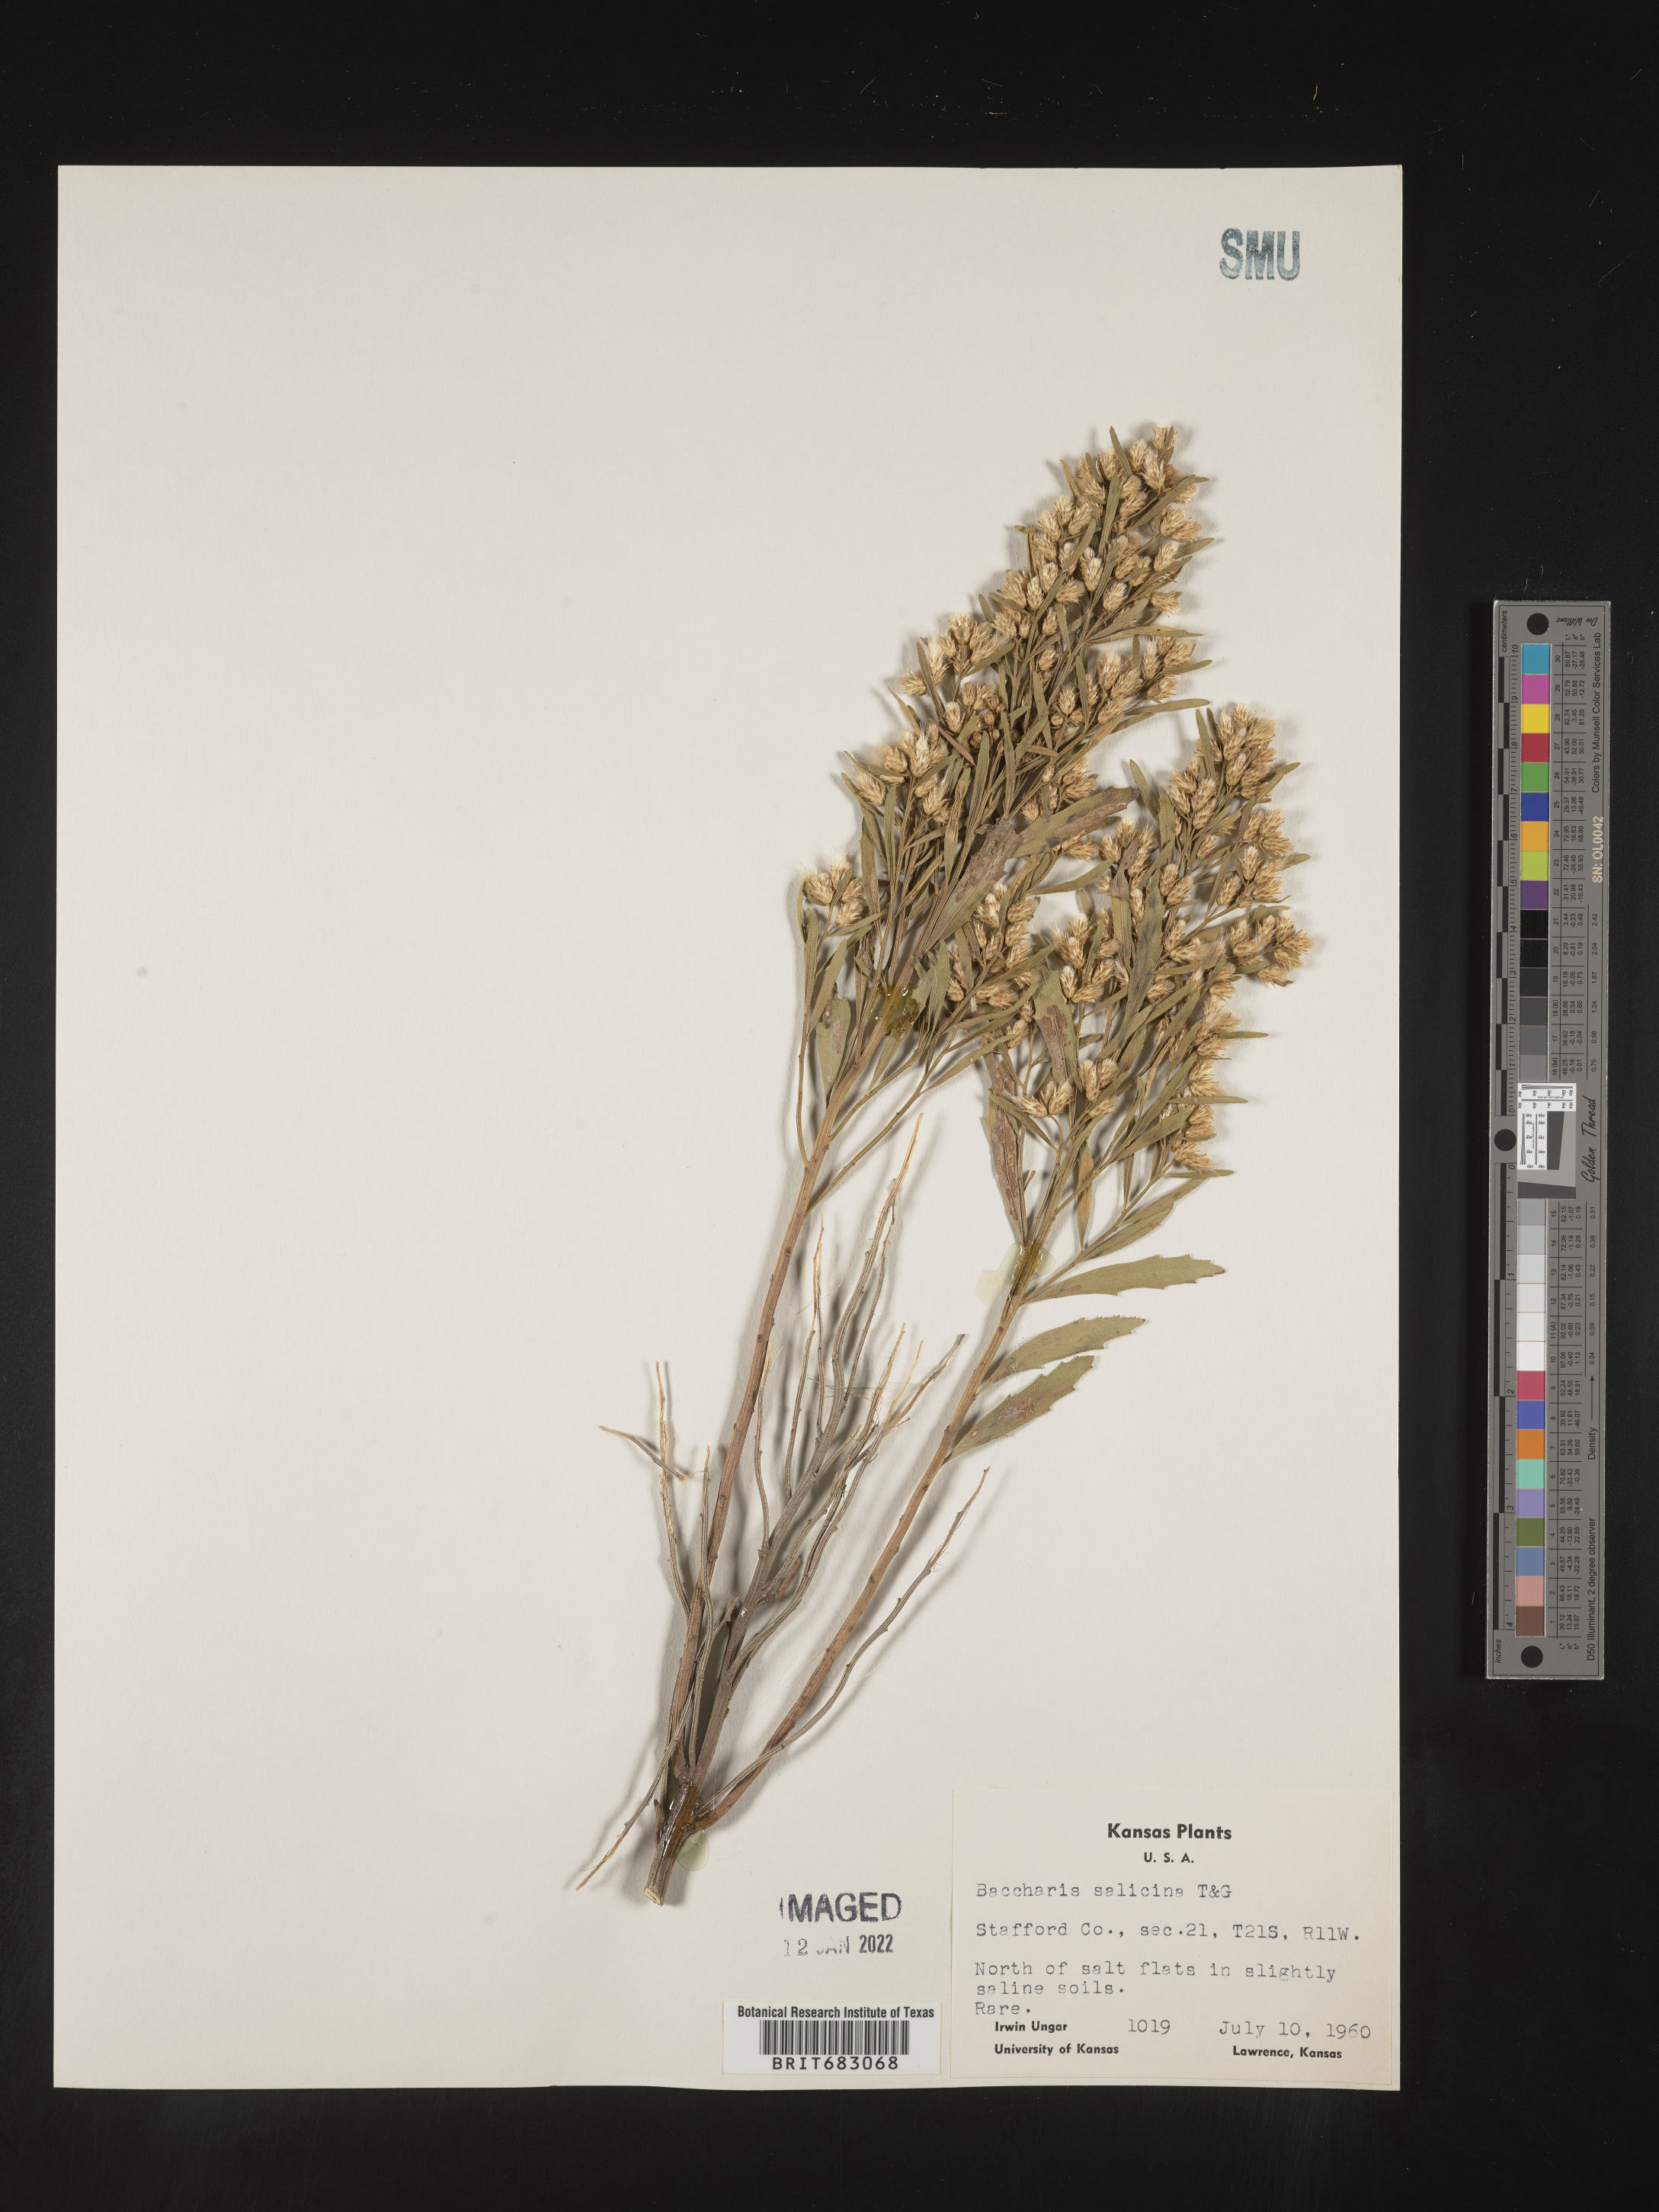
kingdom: Plantae
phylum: Tracheophyta
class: Magnoliopsida
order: Asterales
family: Asteraceae
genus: Baccharis
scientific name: Baccharis salicina
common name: Willow baccharis
